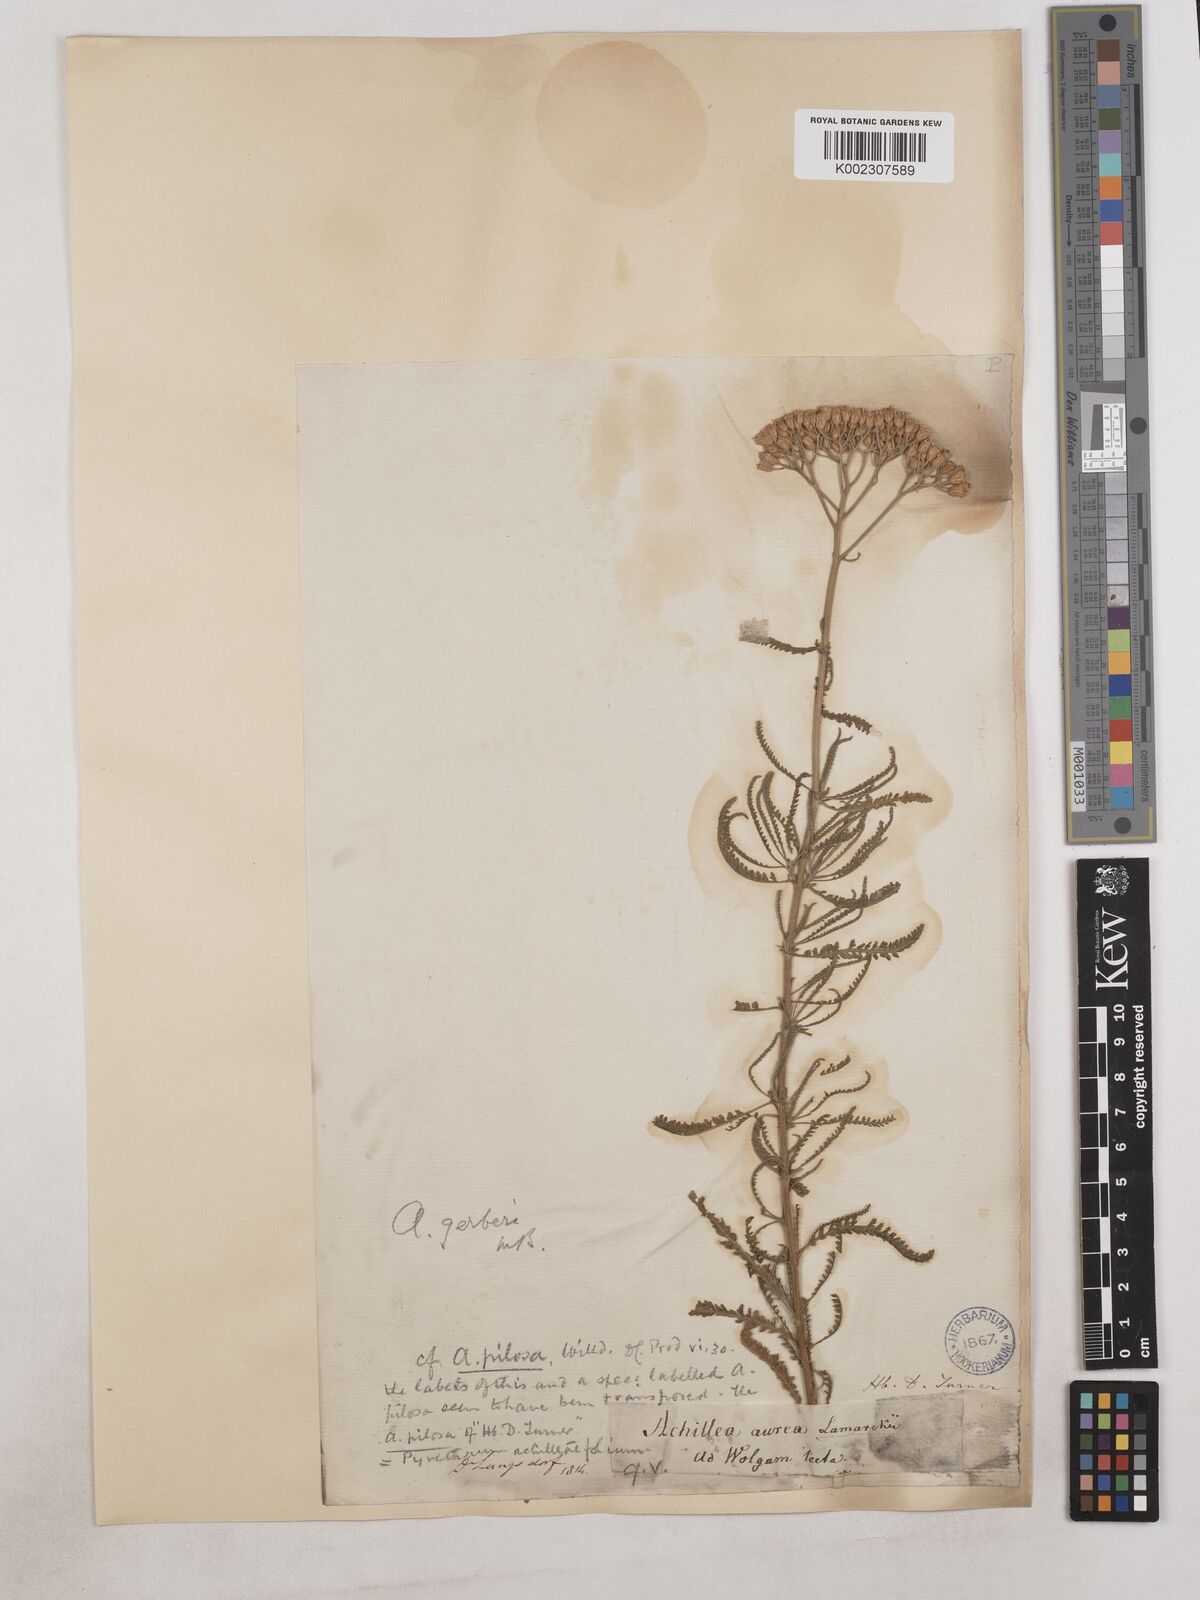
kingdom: Plantae
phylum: Tracheophyta
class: Magnoliopsida
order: Asterales
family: Asteraceae
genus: Achillea
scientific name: Achillea
